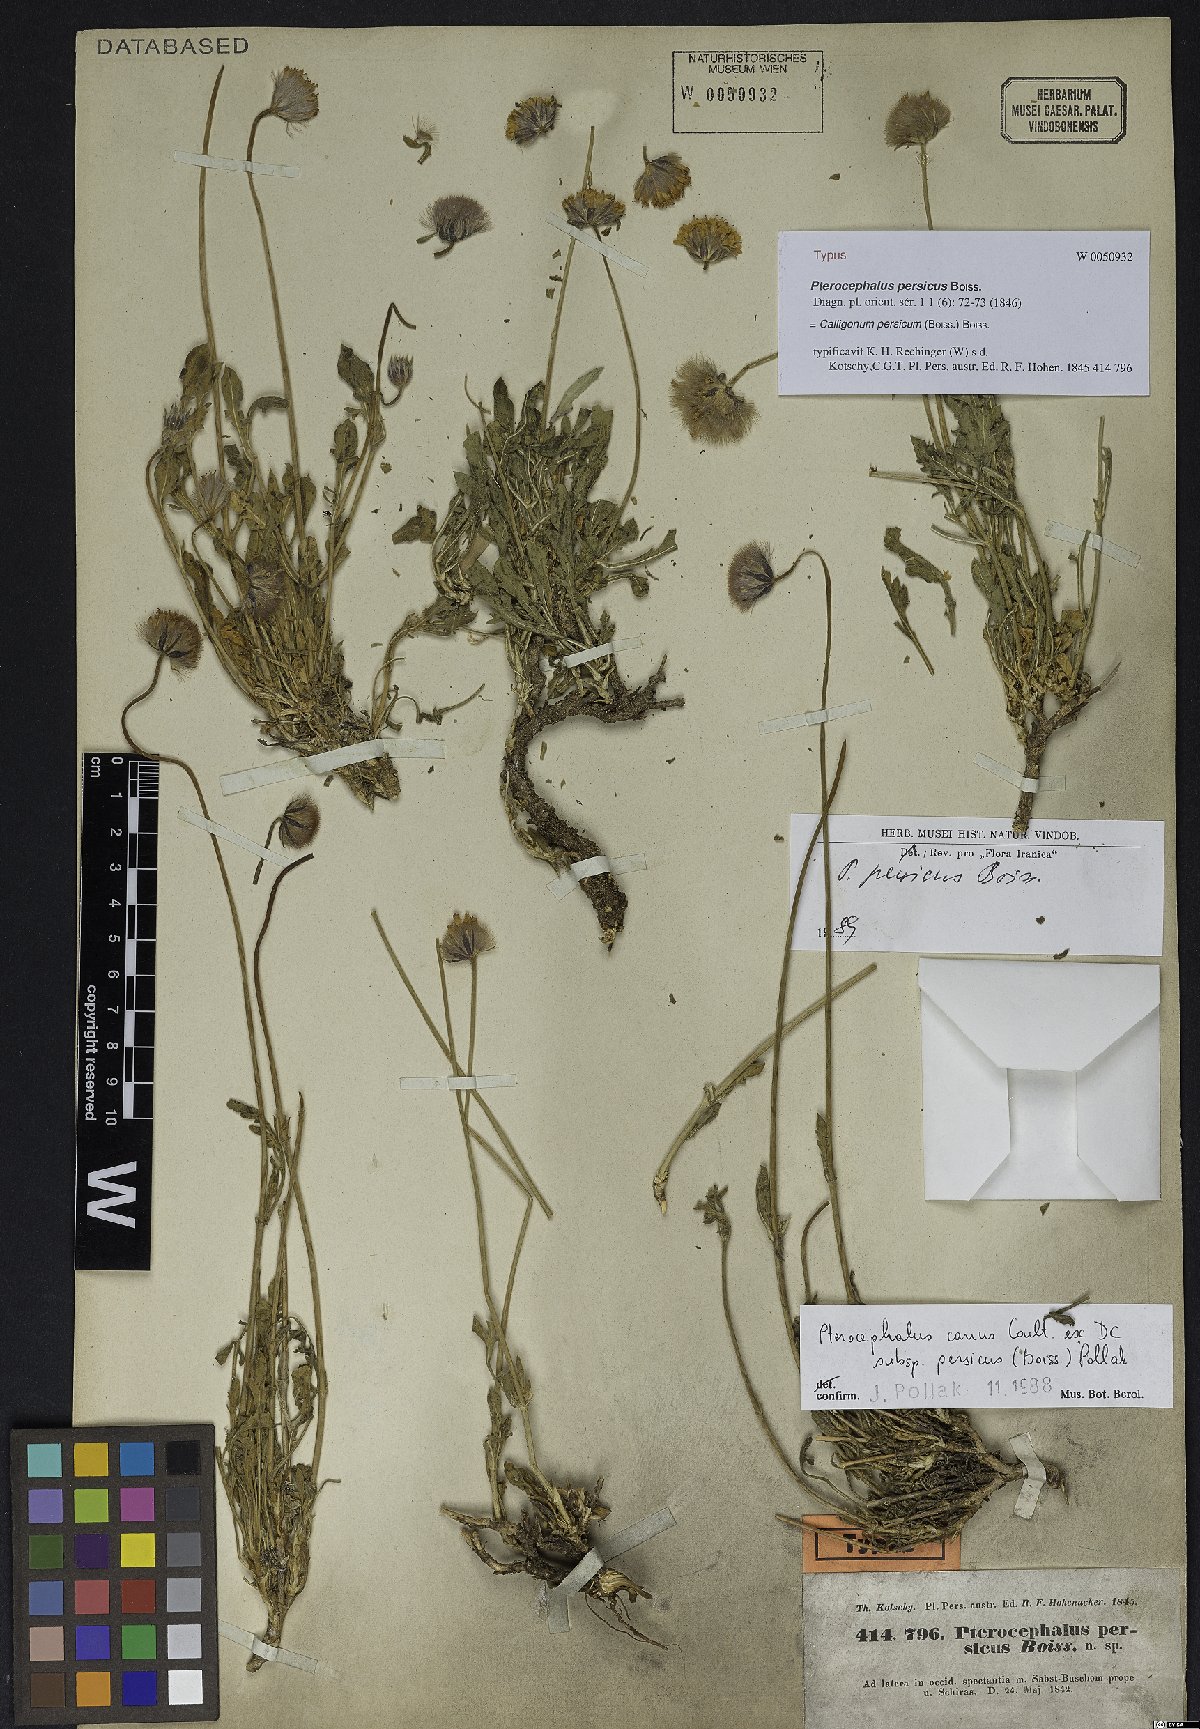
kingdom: Plantae
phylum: Tracheophyta
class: Magnoliopsida
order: Caryophyllales
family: Polygonaceae
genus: Calligonum
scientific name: Calligonum leucocladum
